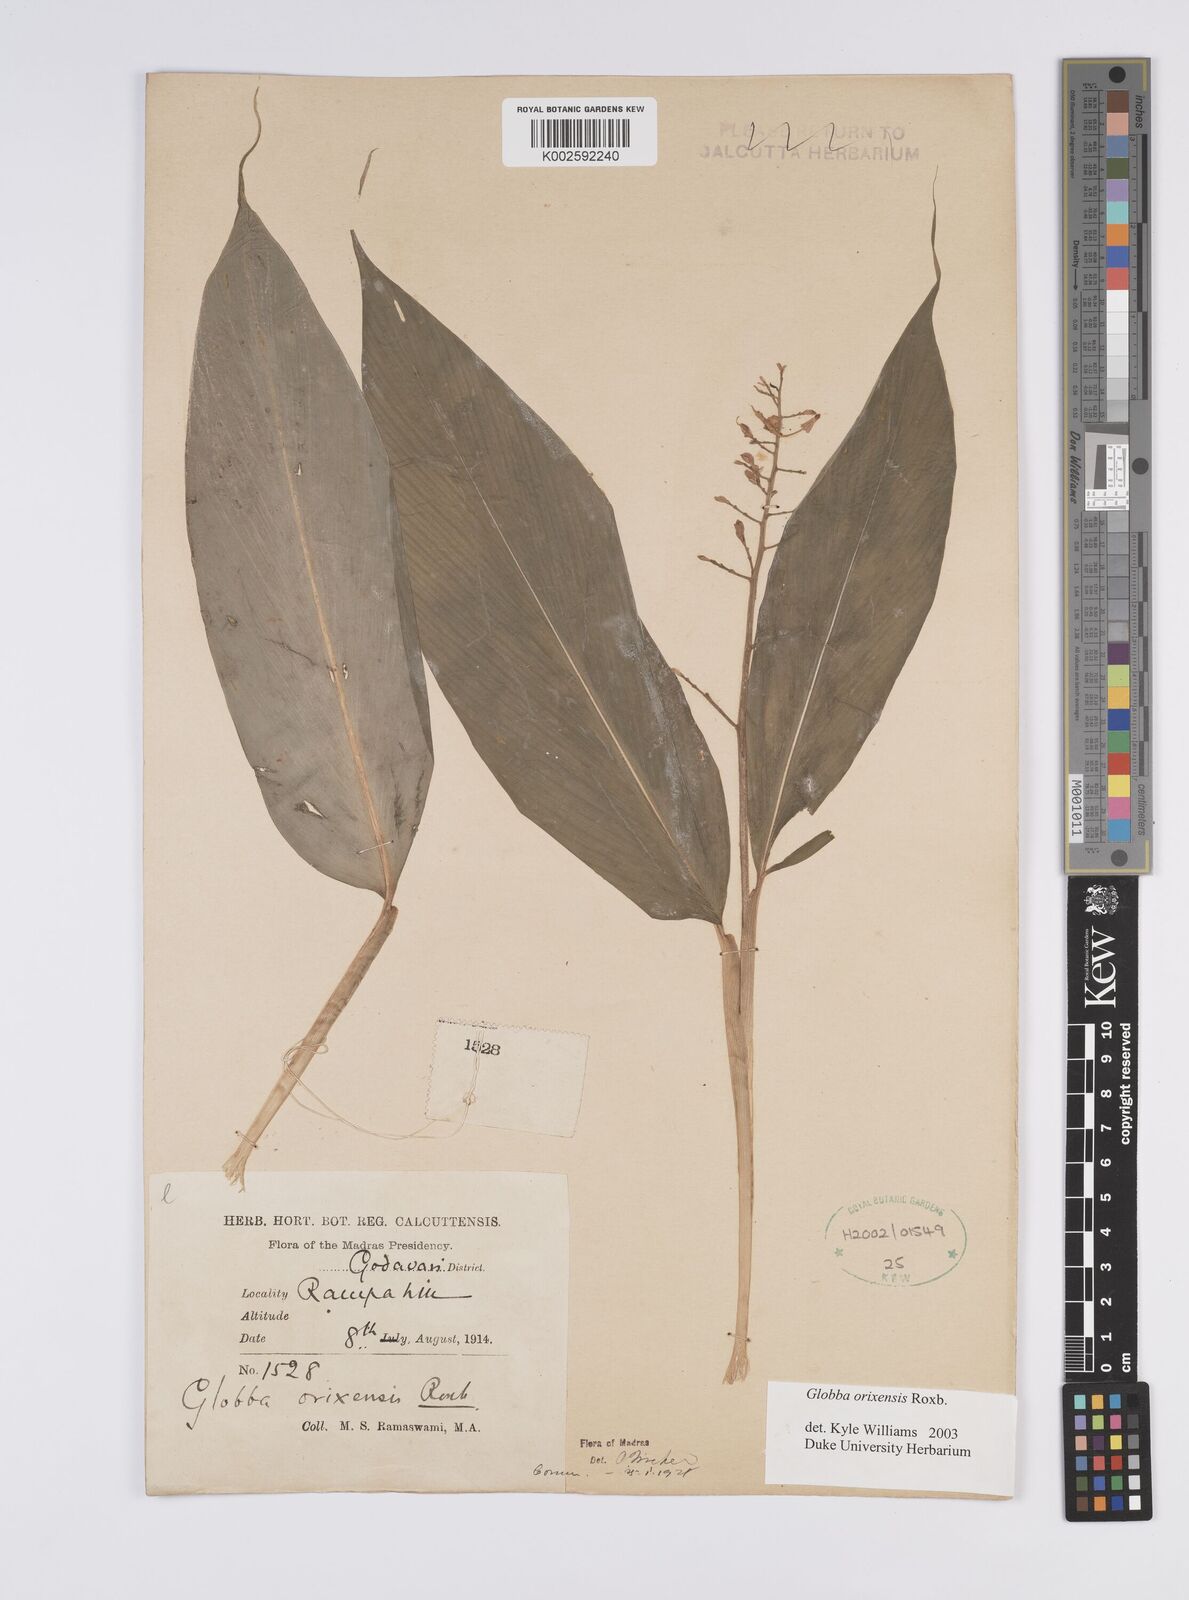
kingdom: Plantae
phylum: Tracheophyta
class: Liliopsida
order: Zingiberales
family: Zingiberaceae
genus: Globba
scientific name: Globba orixensis
